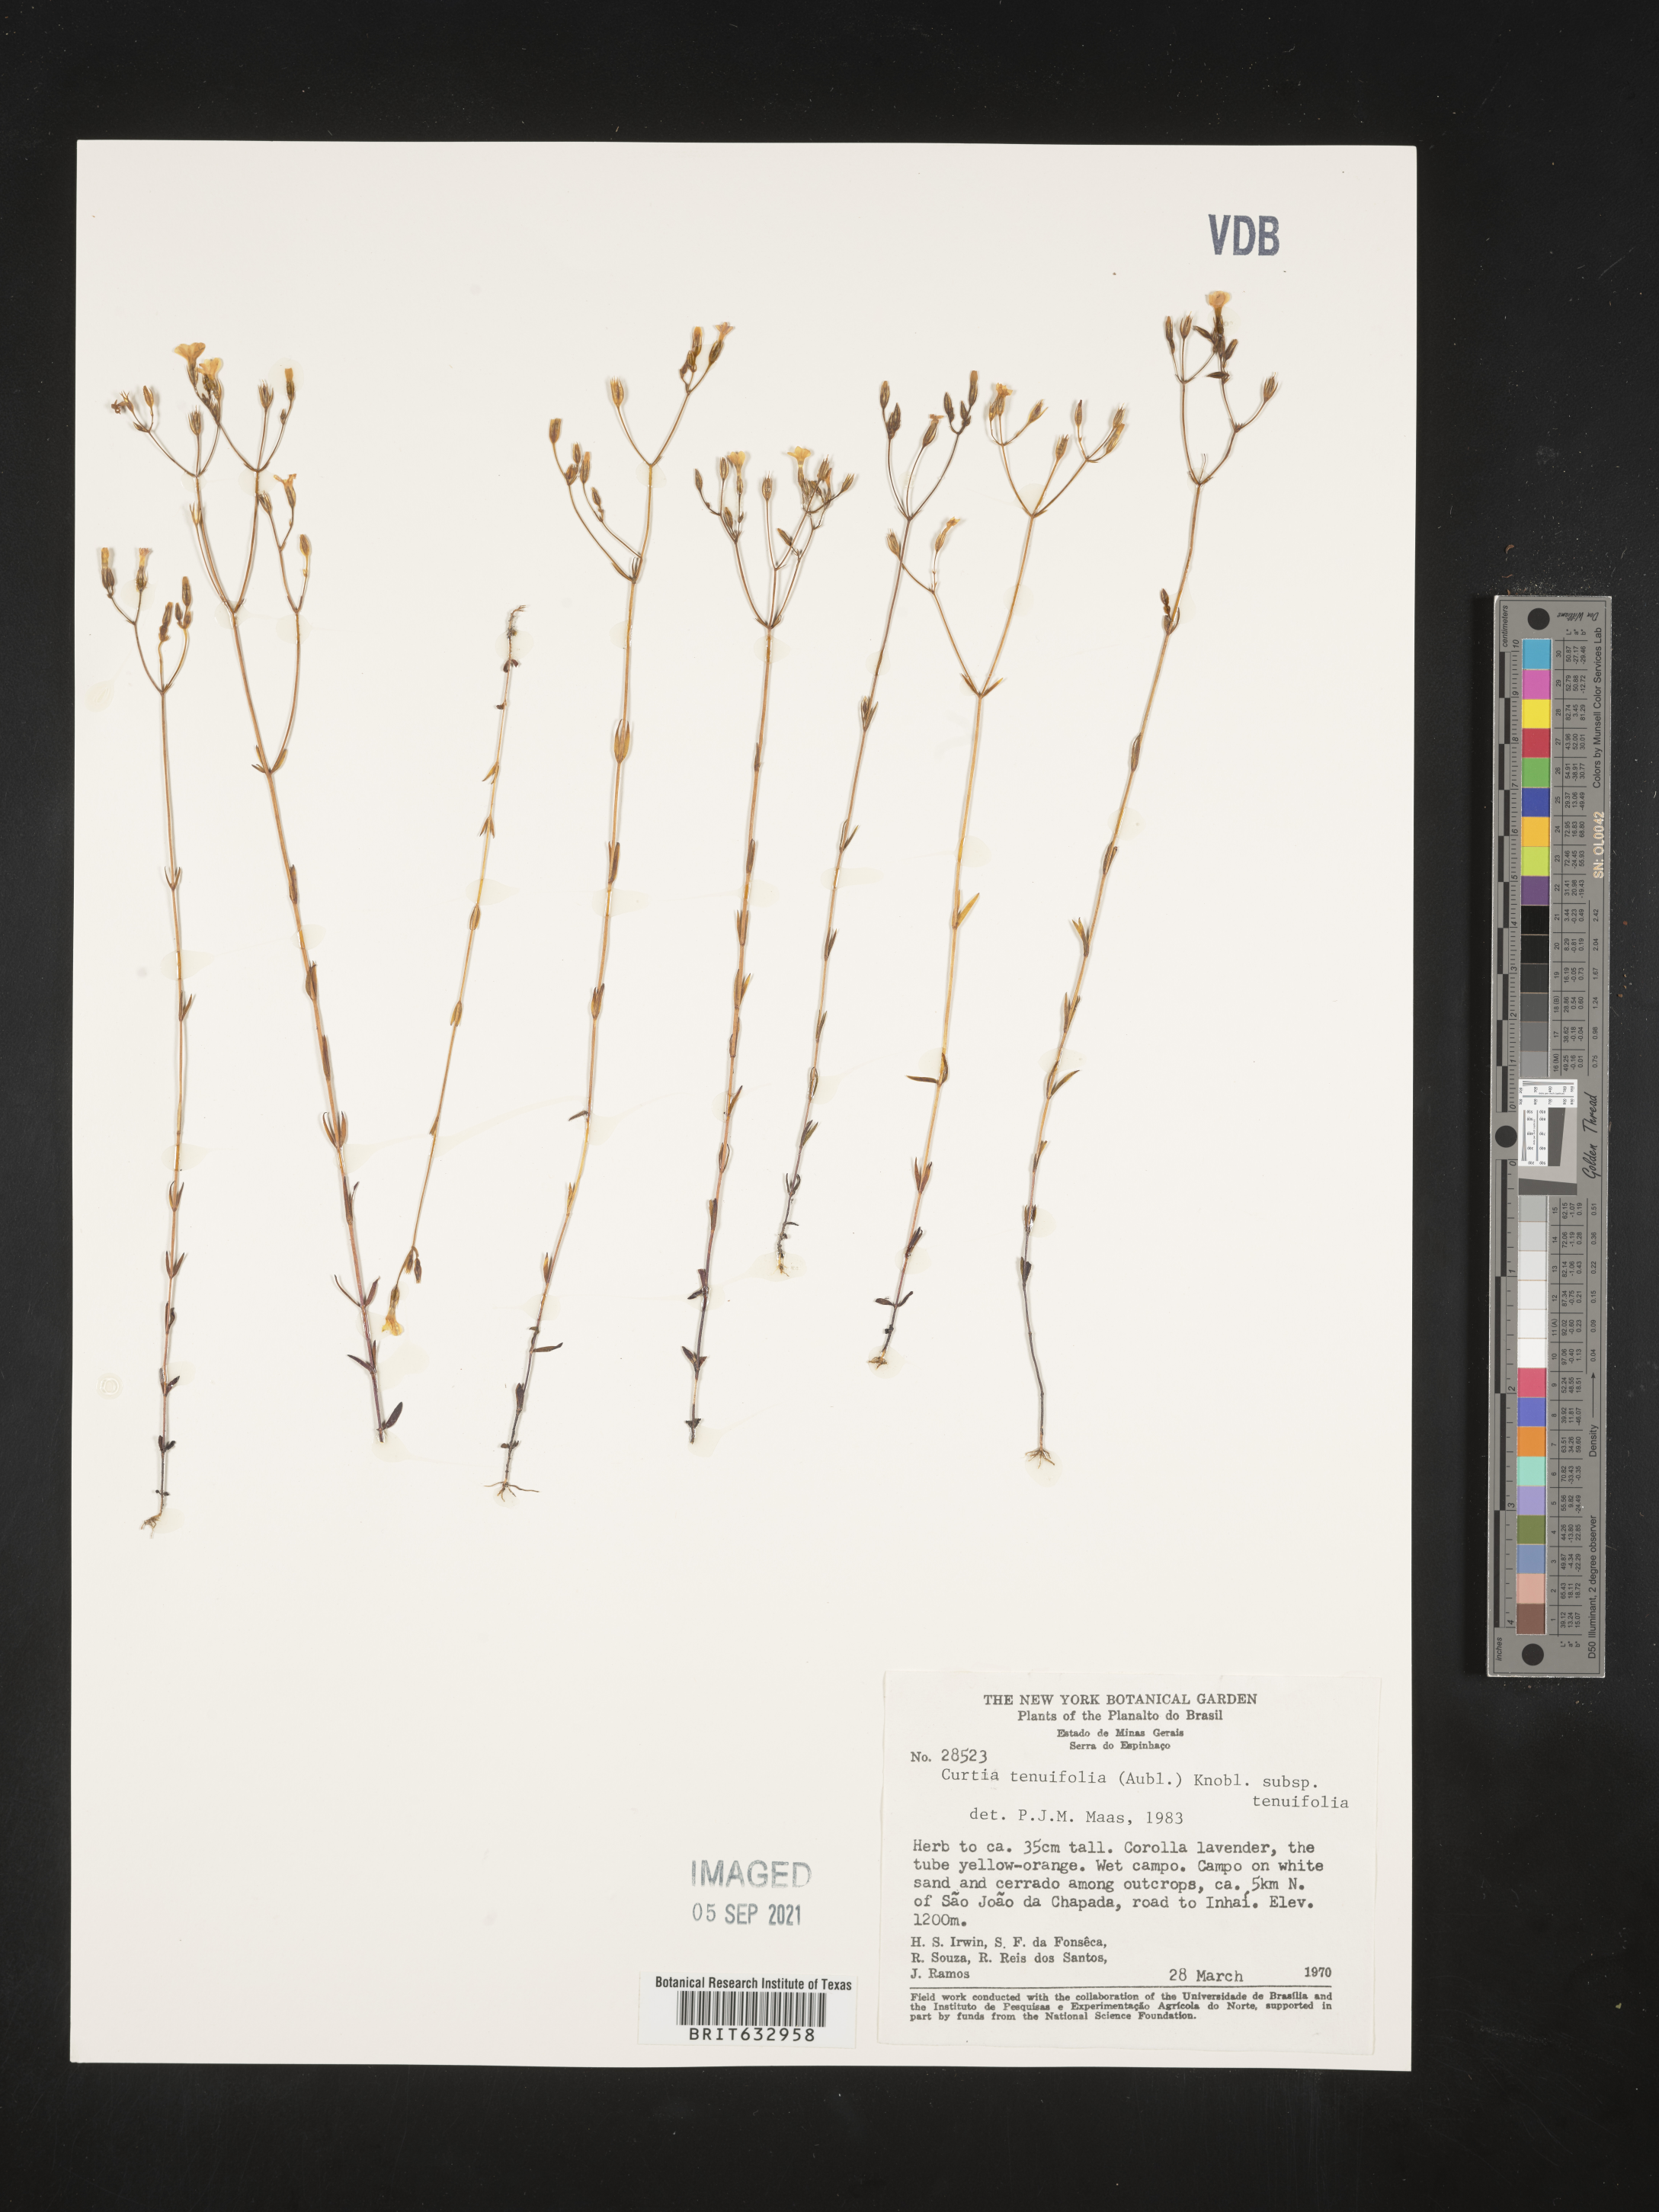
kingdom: Plantae
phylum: Tracheophyta
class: Magnoliopsida
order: Gentianales
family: Gentianaceae
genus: Curtia
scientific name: Curtia
